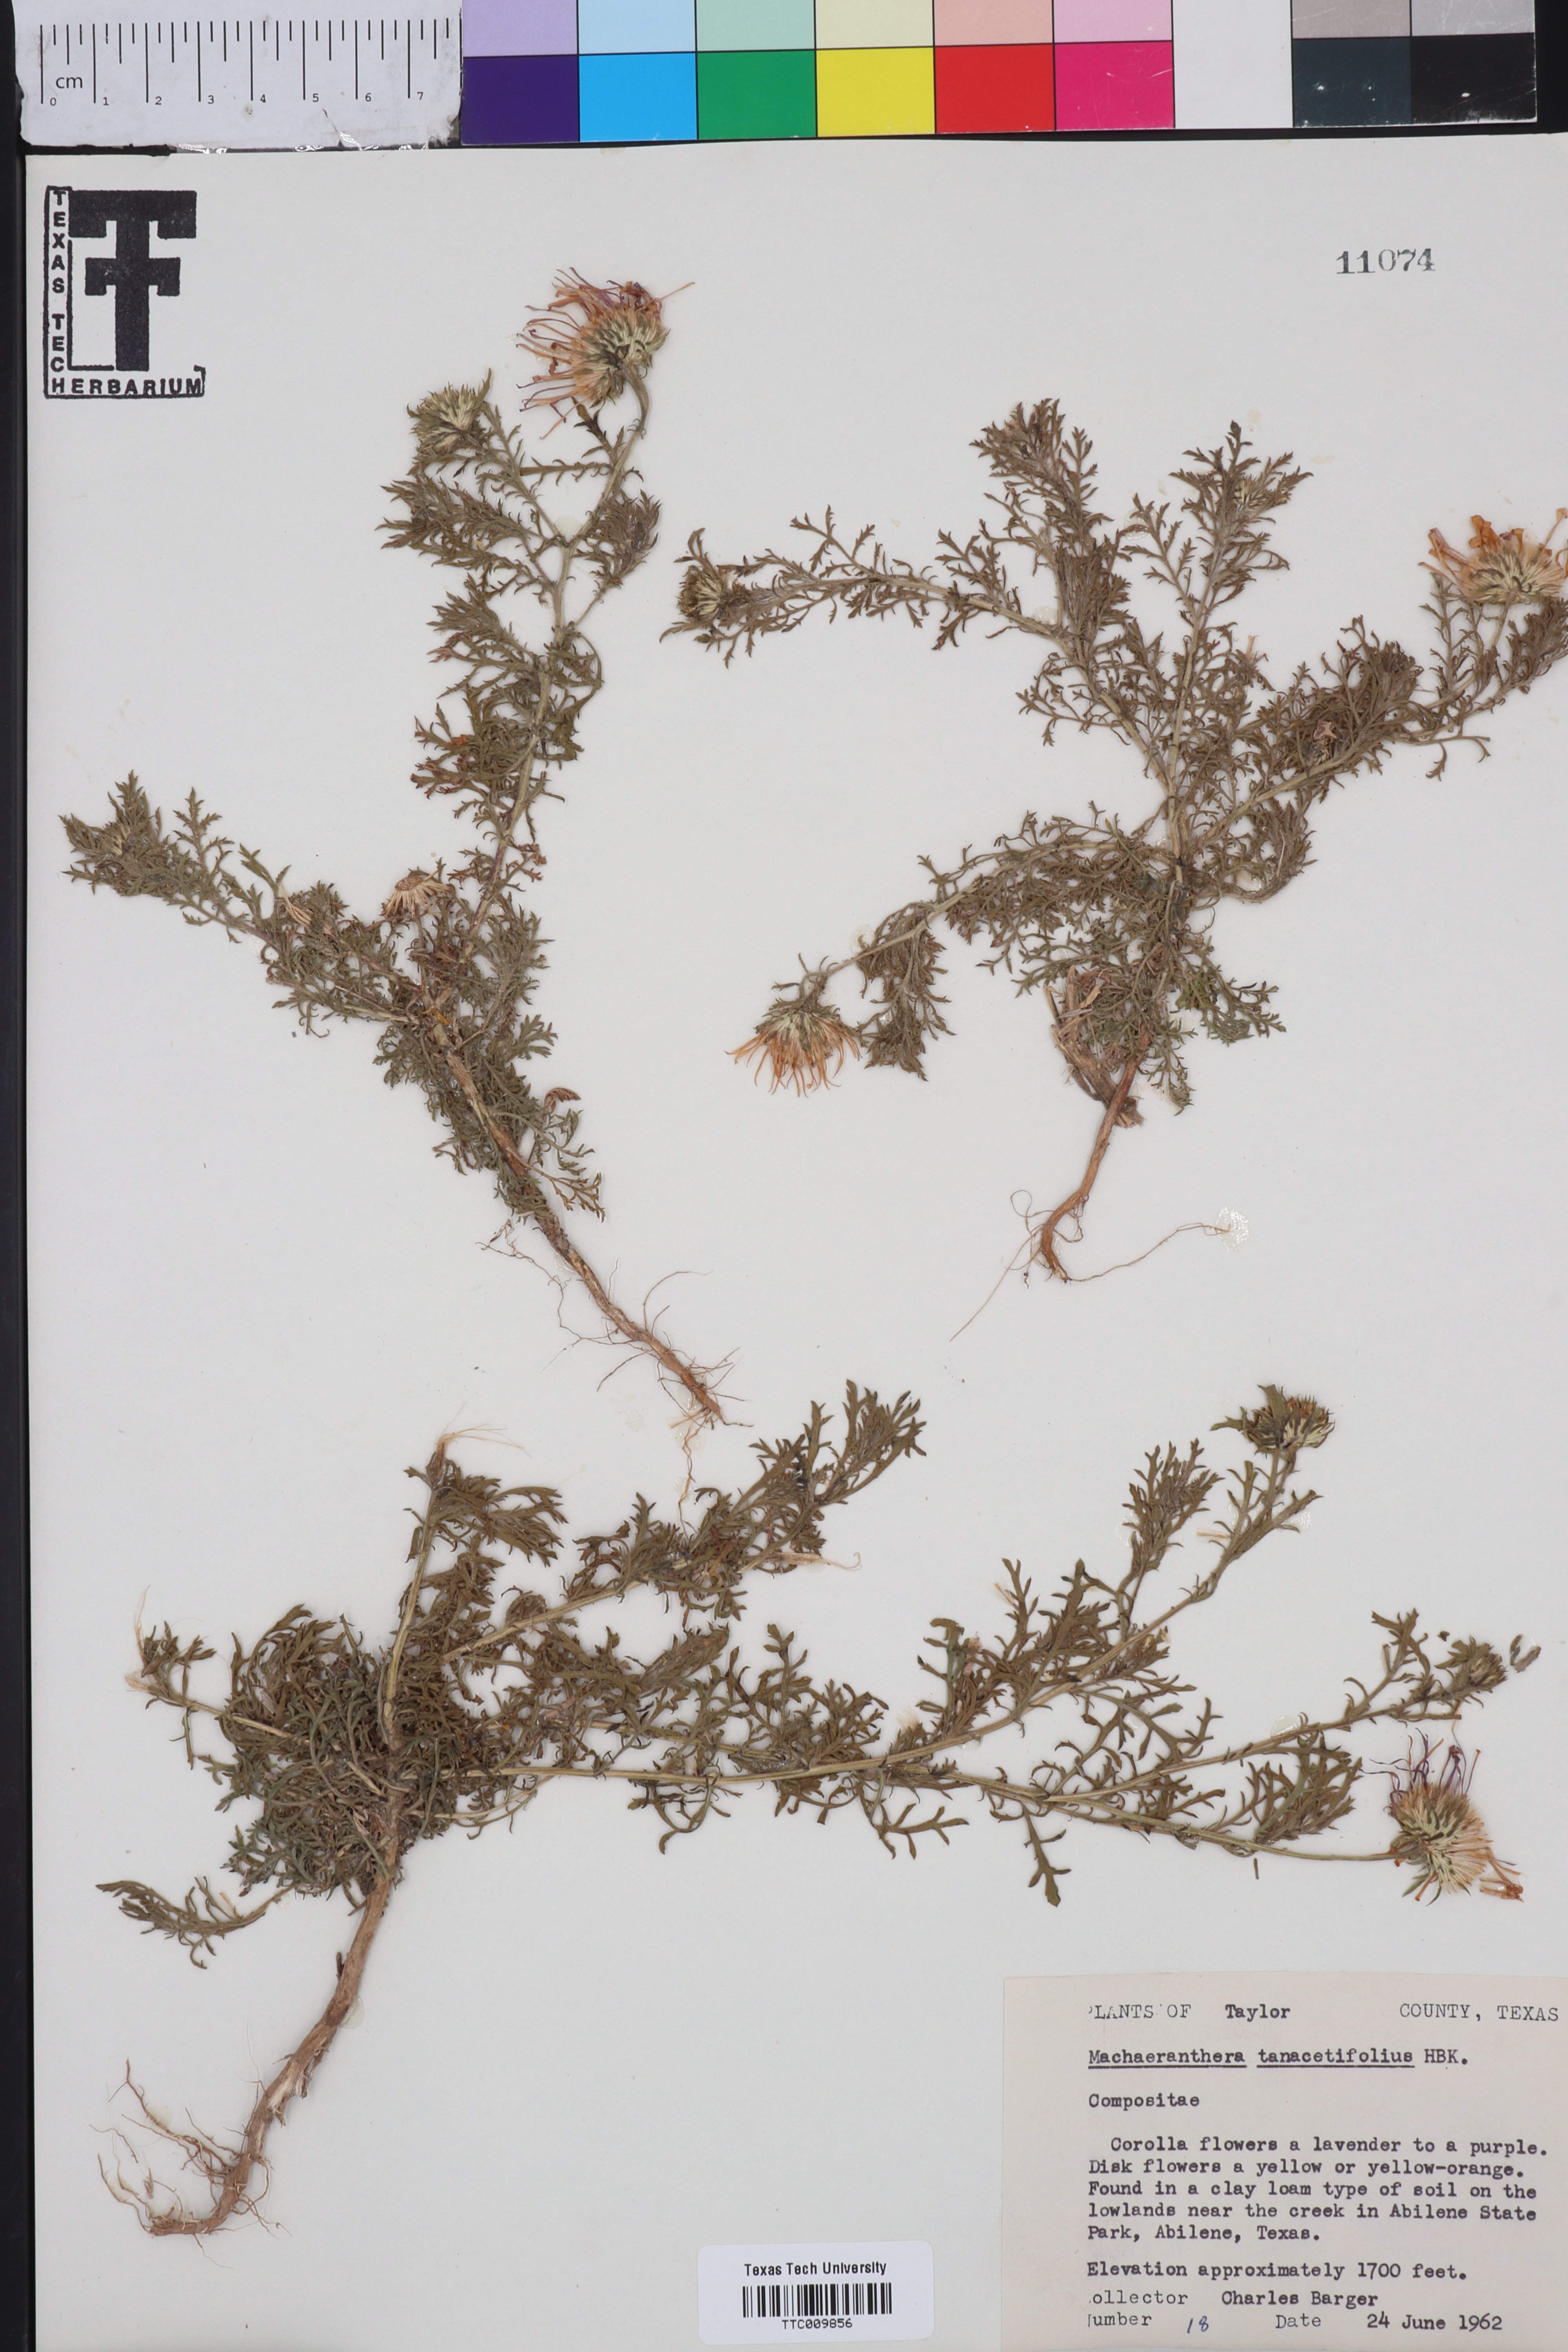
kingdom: Plantae
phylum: Tracheophyta
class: Magnoliopsida
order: Asterales
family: Asteraceae
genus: Machaeranthera
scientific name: Machaeranthera tanacetifolia
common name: Tansy-aster
